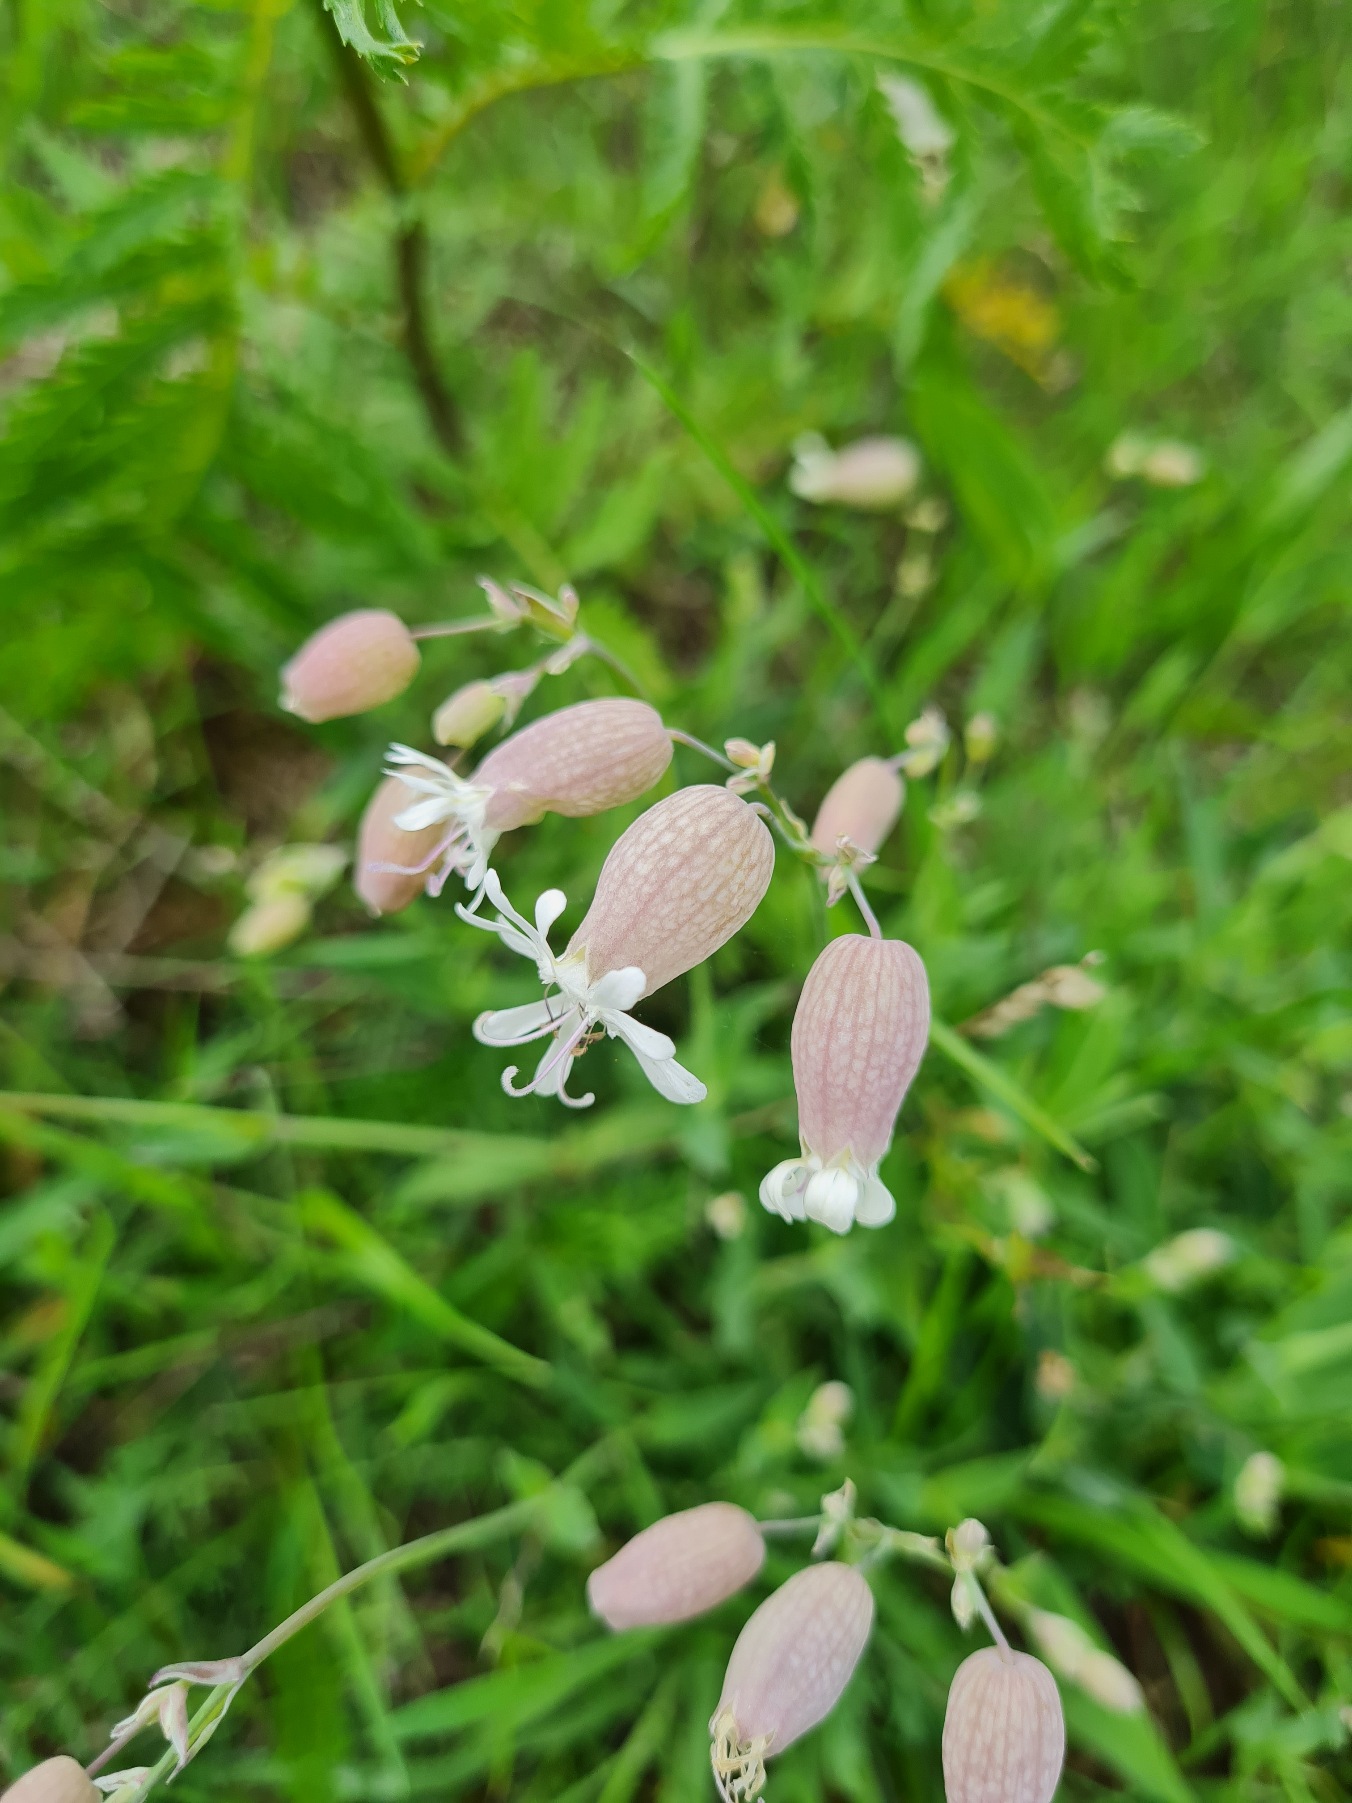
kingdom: Plantae
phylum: Tracheophyta
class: Magnoliopsida
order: Caryophyllales
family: Caryophyllaceae
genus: Silene
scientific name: Silene vulgaris
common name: Blæresmælde
